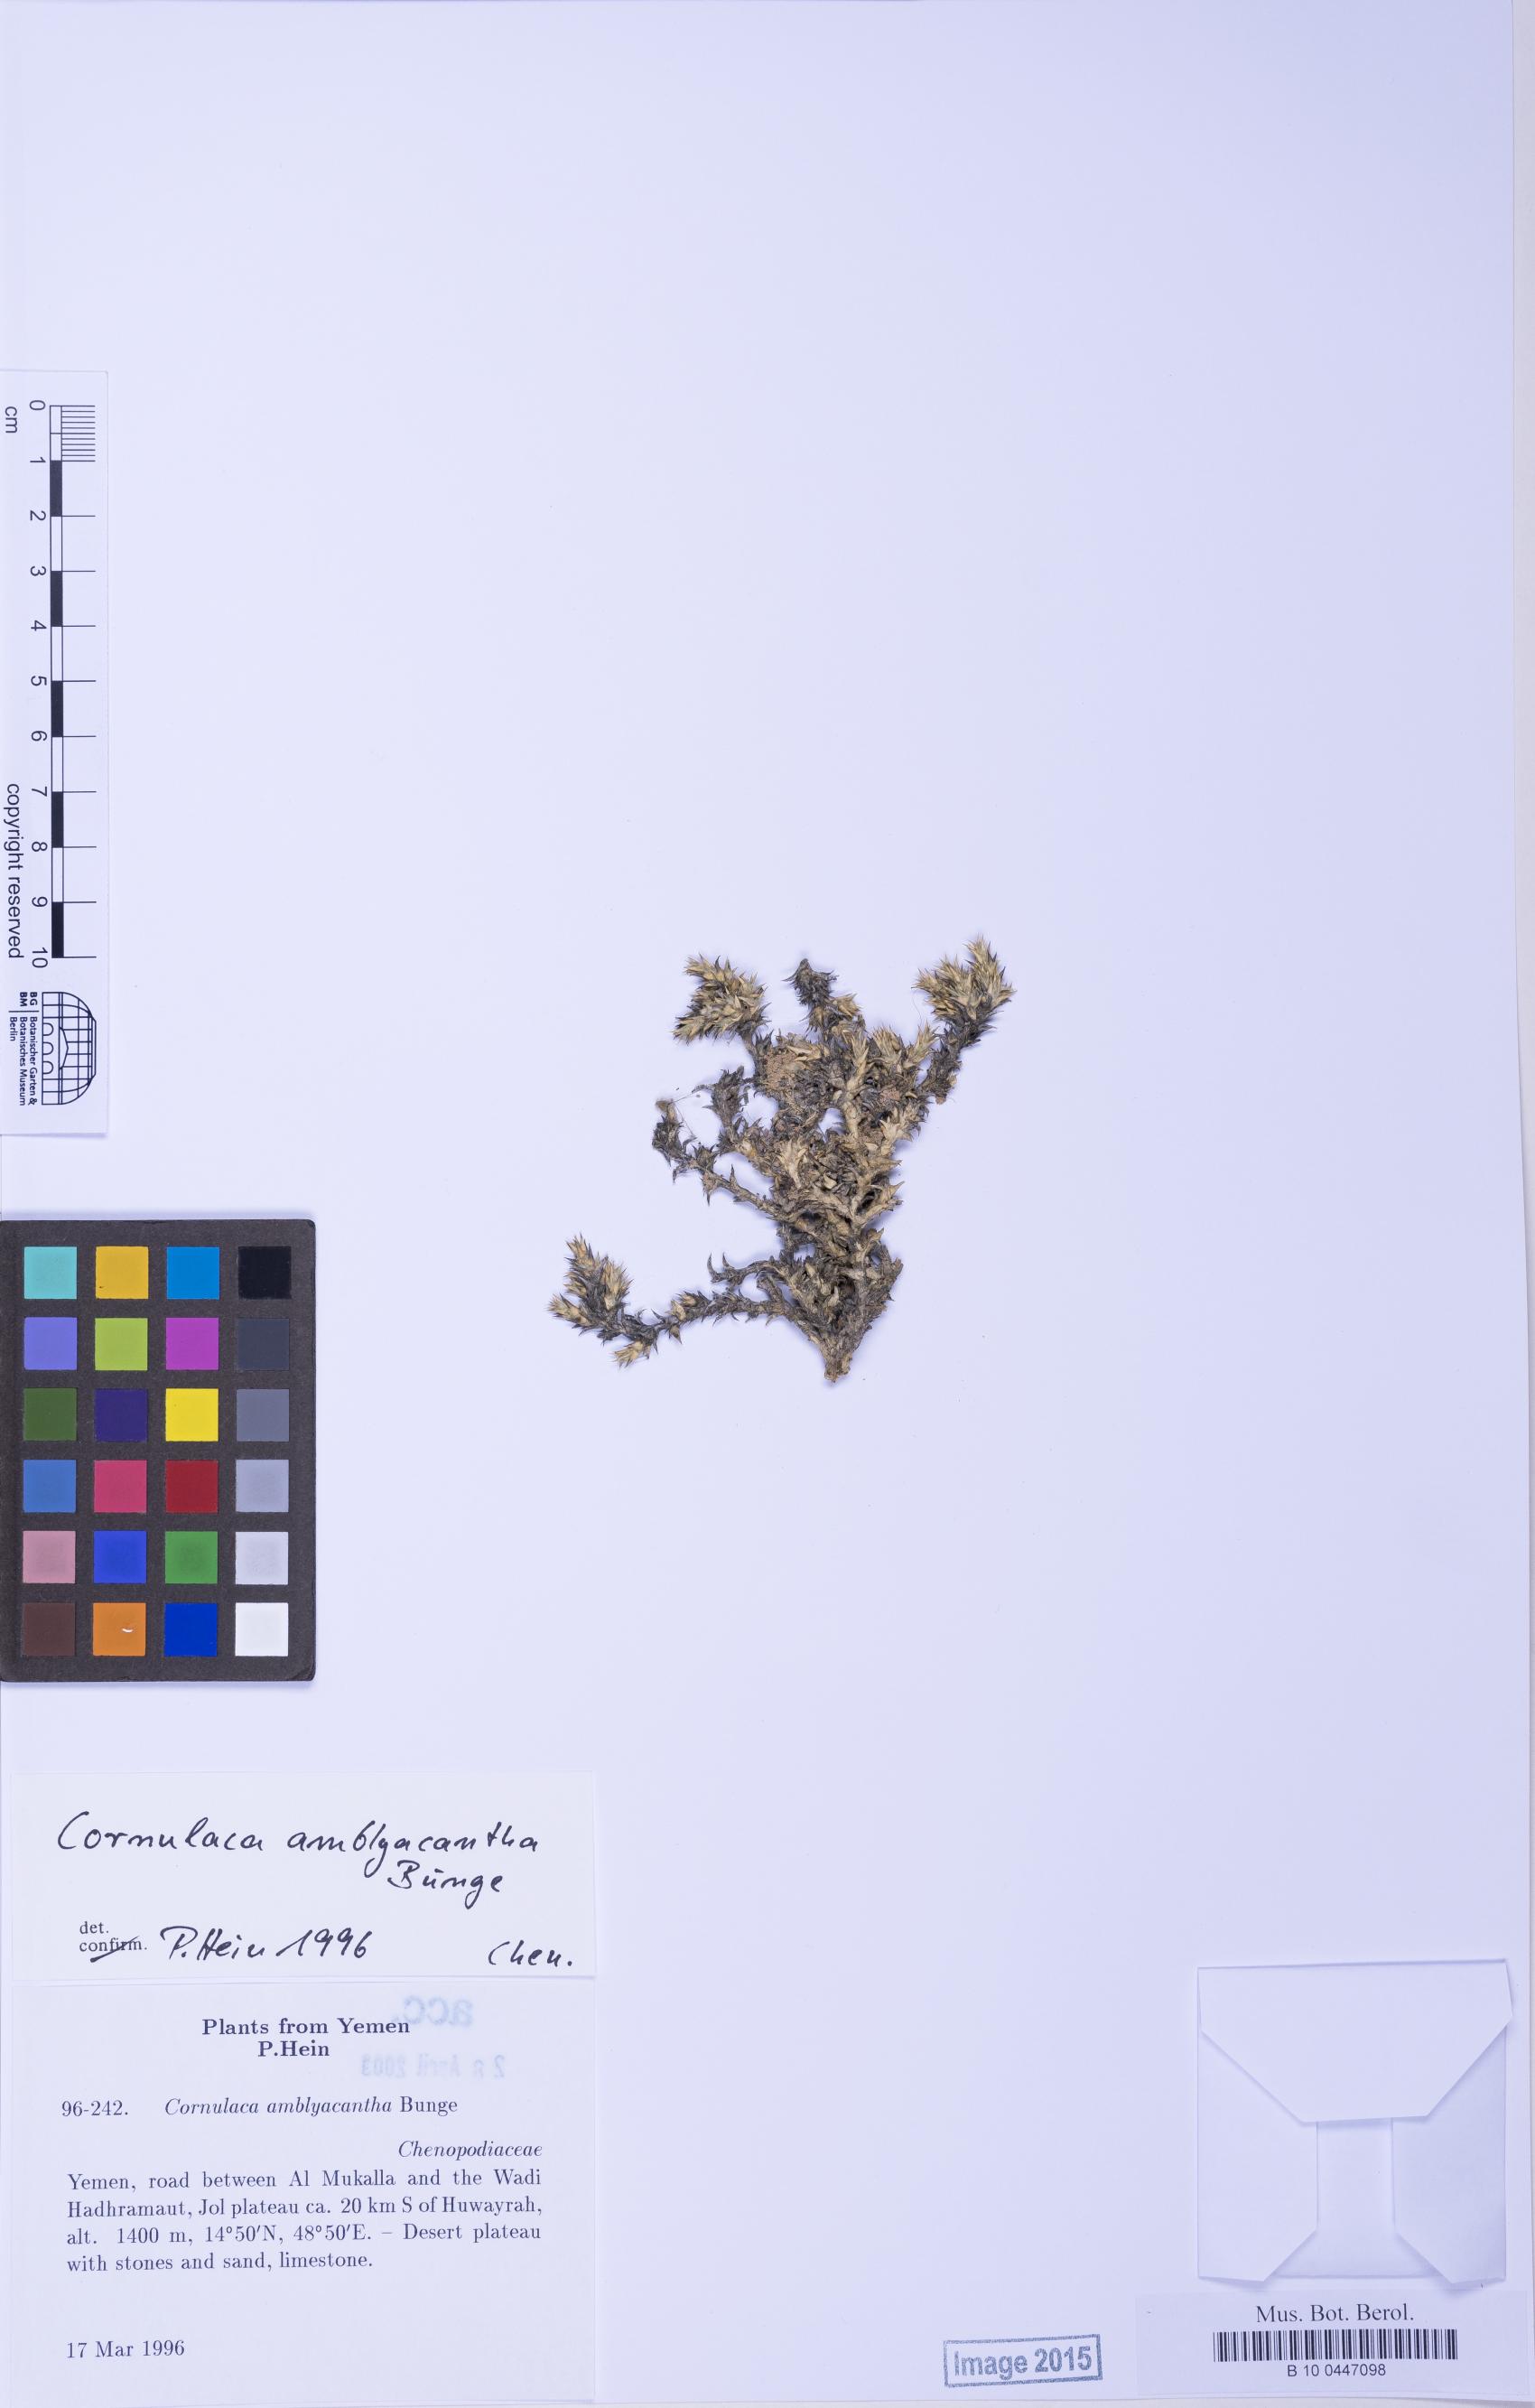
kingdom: Plantae
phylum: Tracheophyta
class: Magnoliopsida
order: Caryophyllales
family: Amaranthaceae
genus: Cornulaca
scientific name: Cornulaca monacantha
